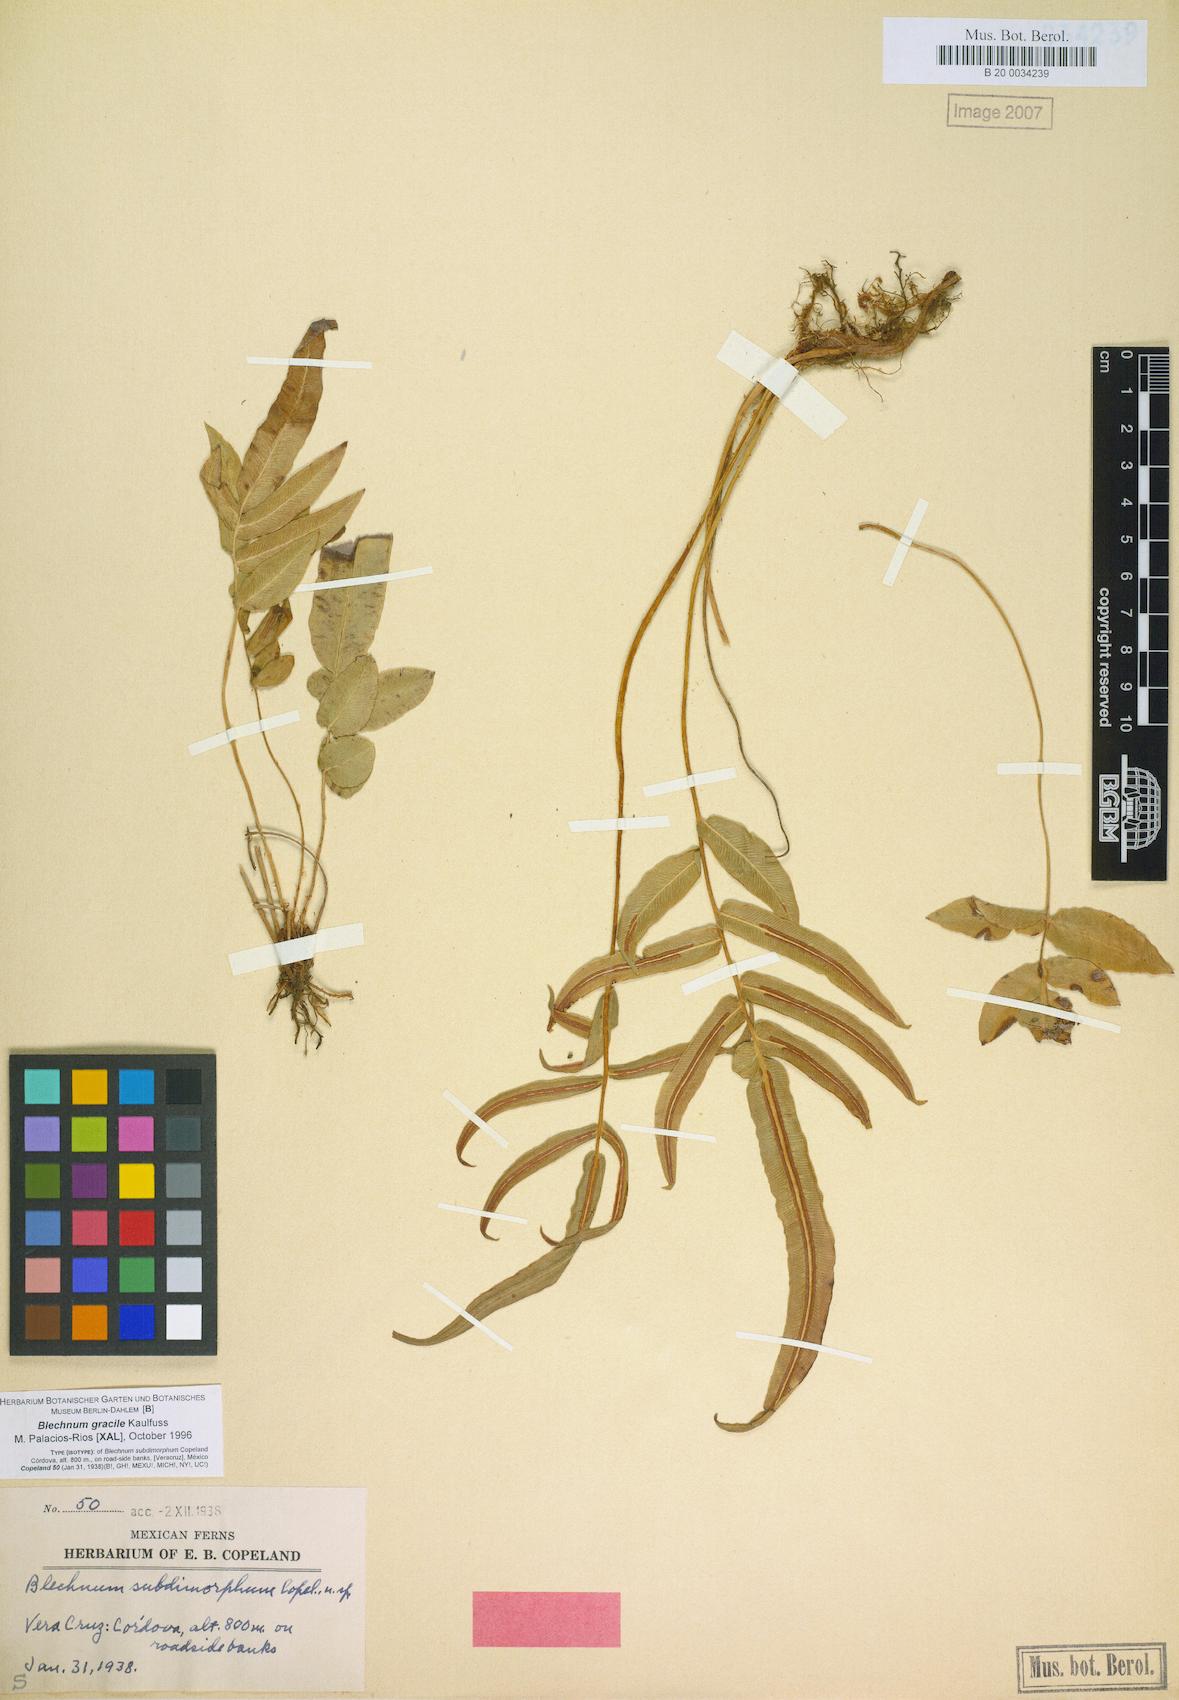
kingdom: Plantae
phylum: Tracheophyta
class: Polypodiopsida
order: Polypodiales
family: Blechnaceae
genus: Blechnum
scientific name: Blechnum gracile
